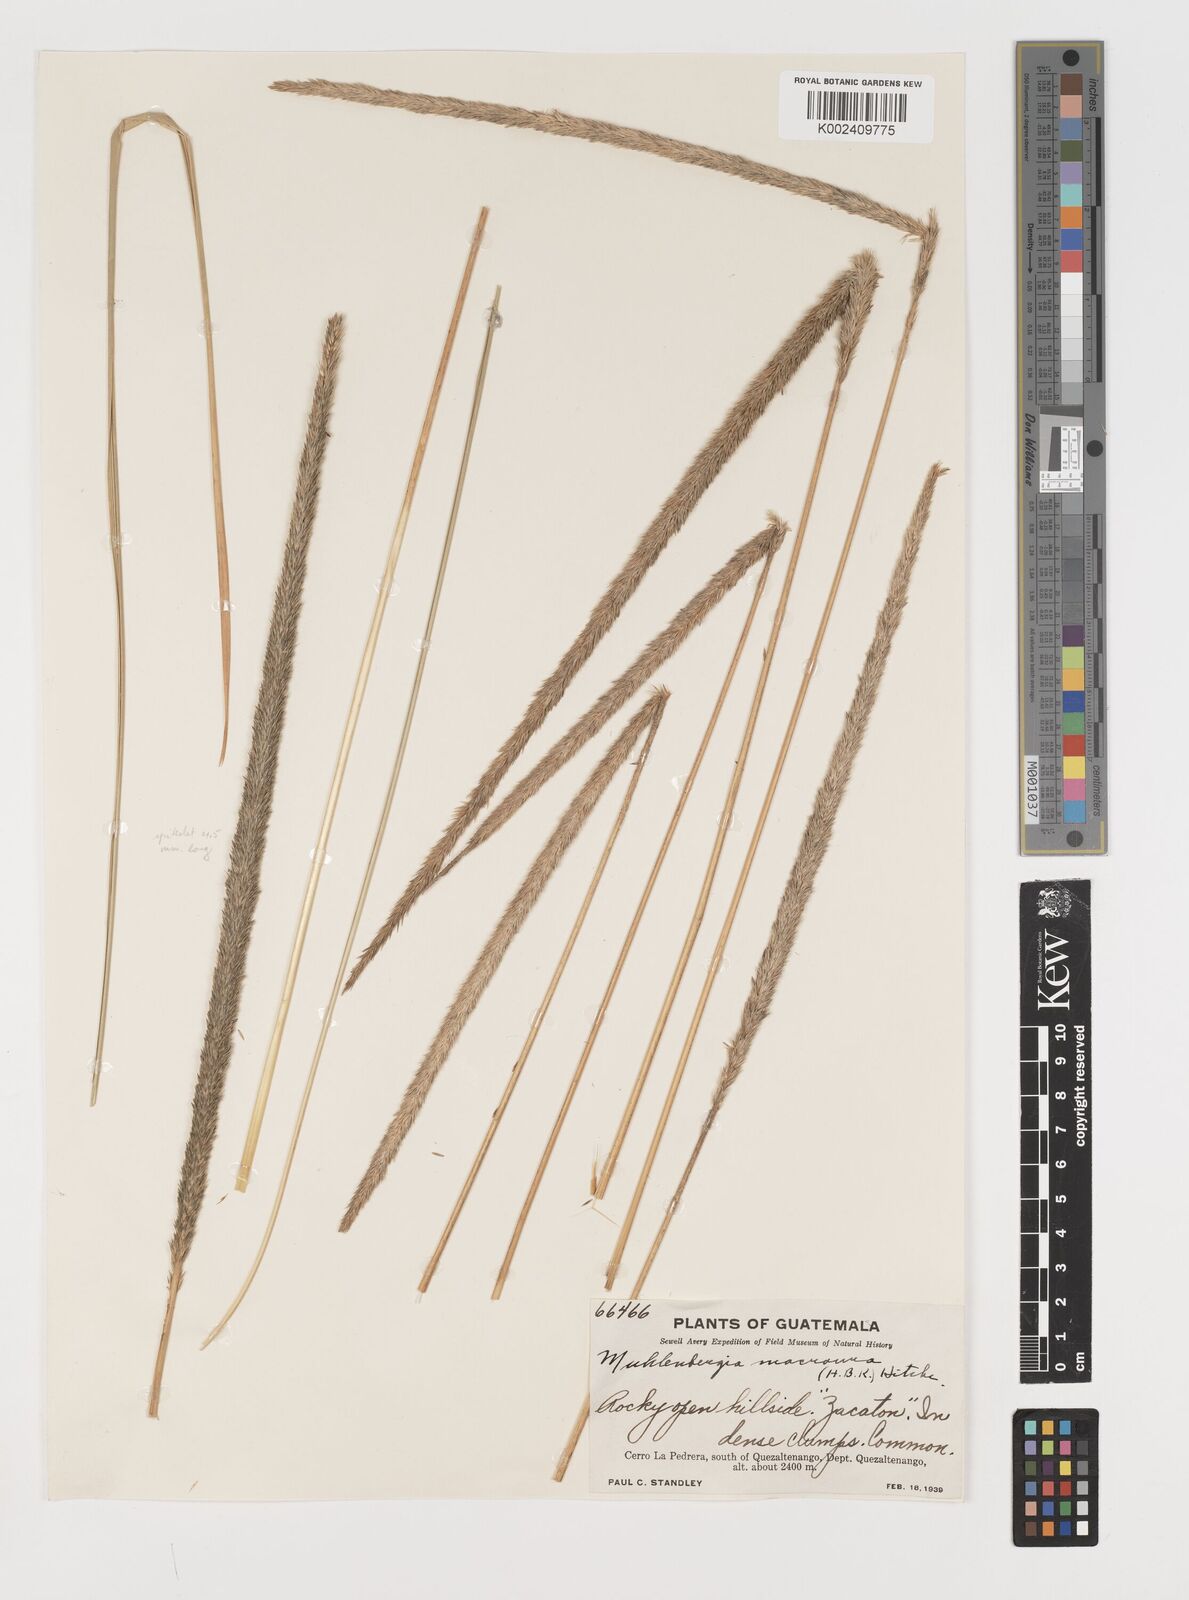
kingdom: Plantae
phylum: Tracheophyta
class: Liliopsida
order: Poales
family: Poaceae
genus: Muhlenbergia
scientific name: Muhlenbergia macroura
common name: Mexican broomroot
